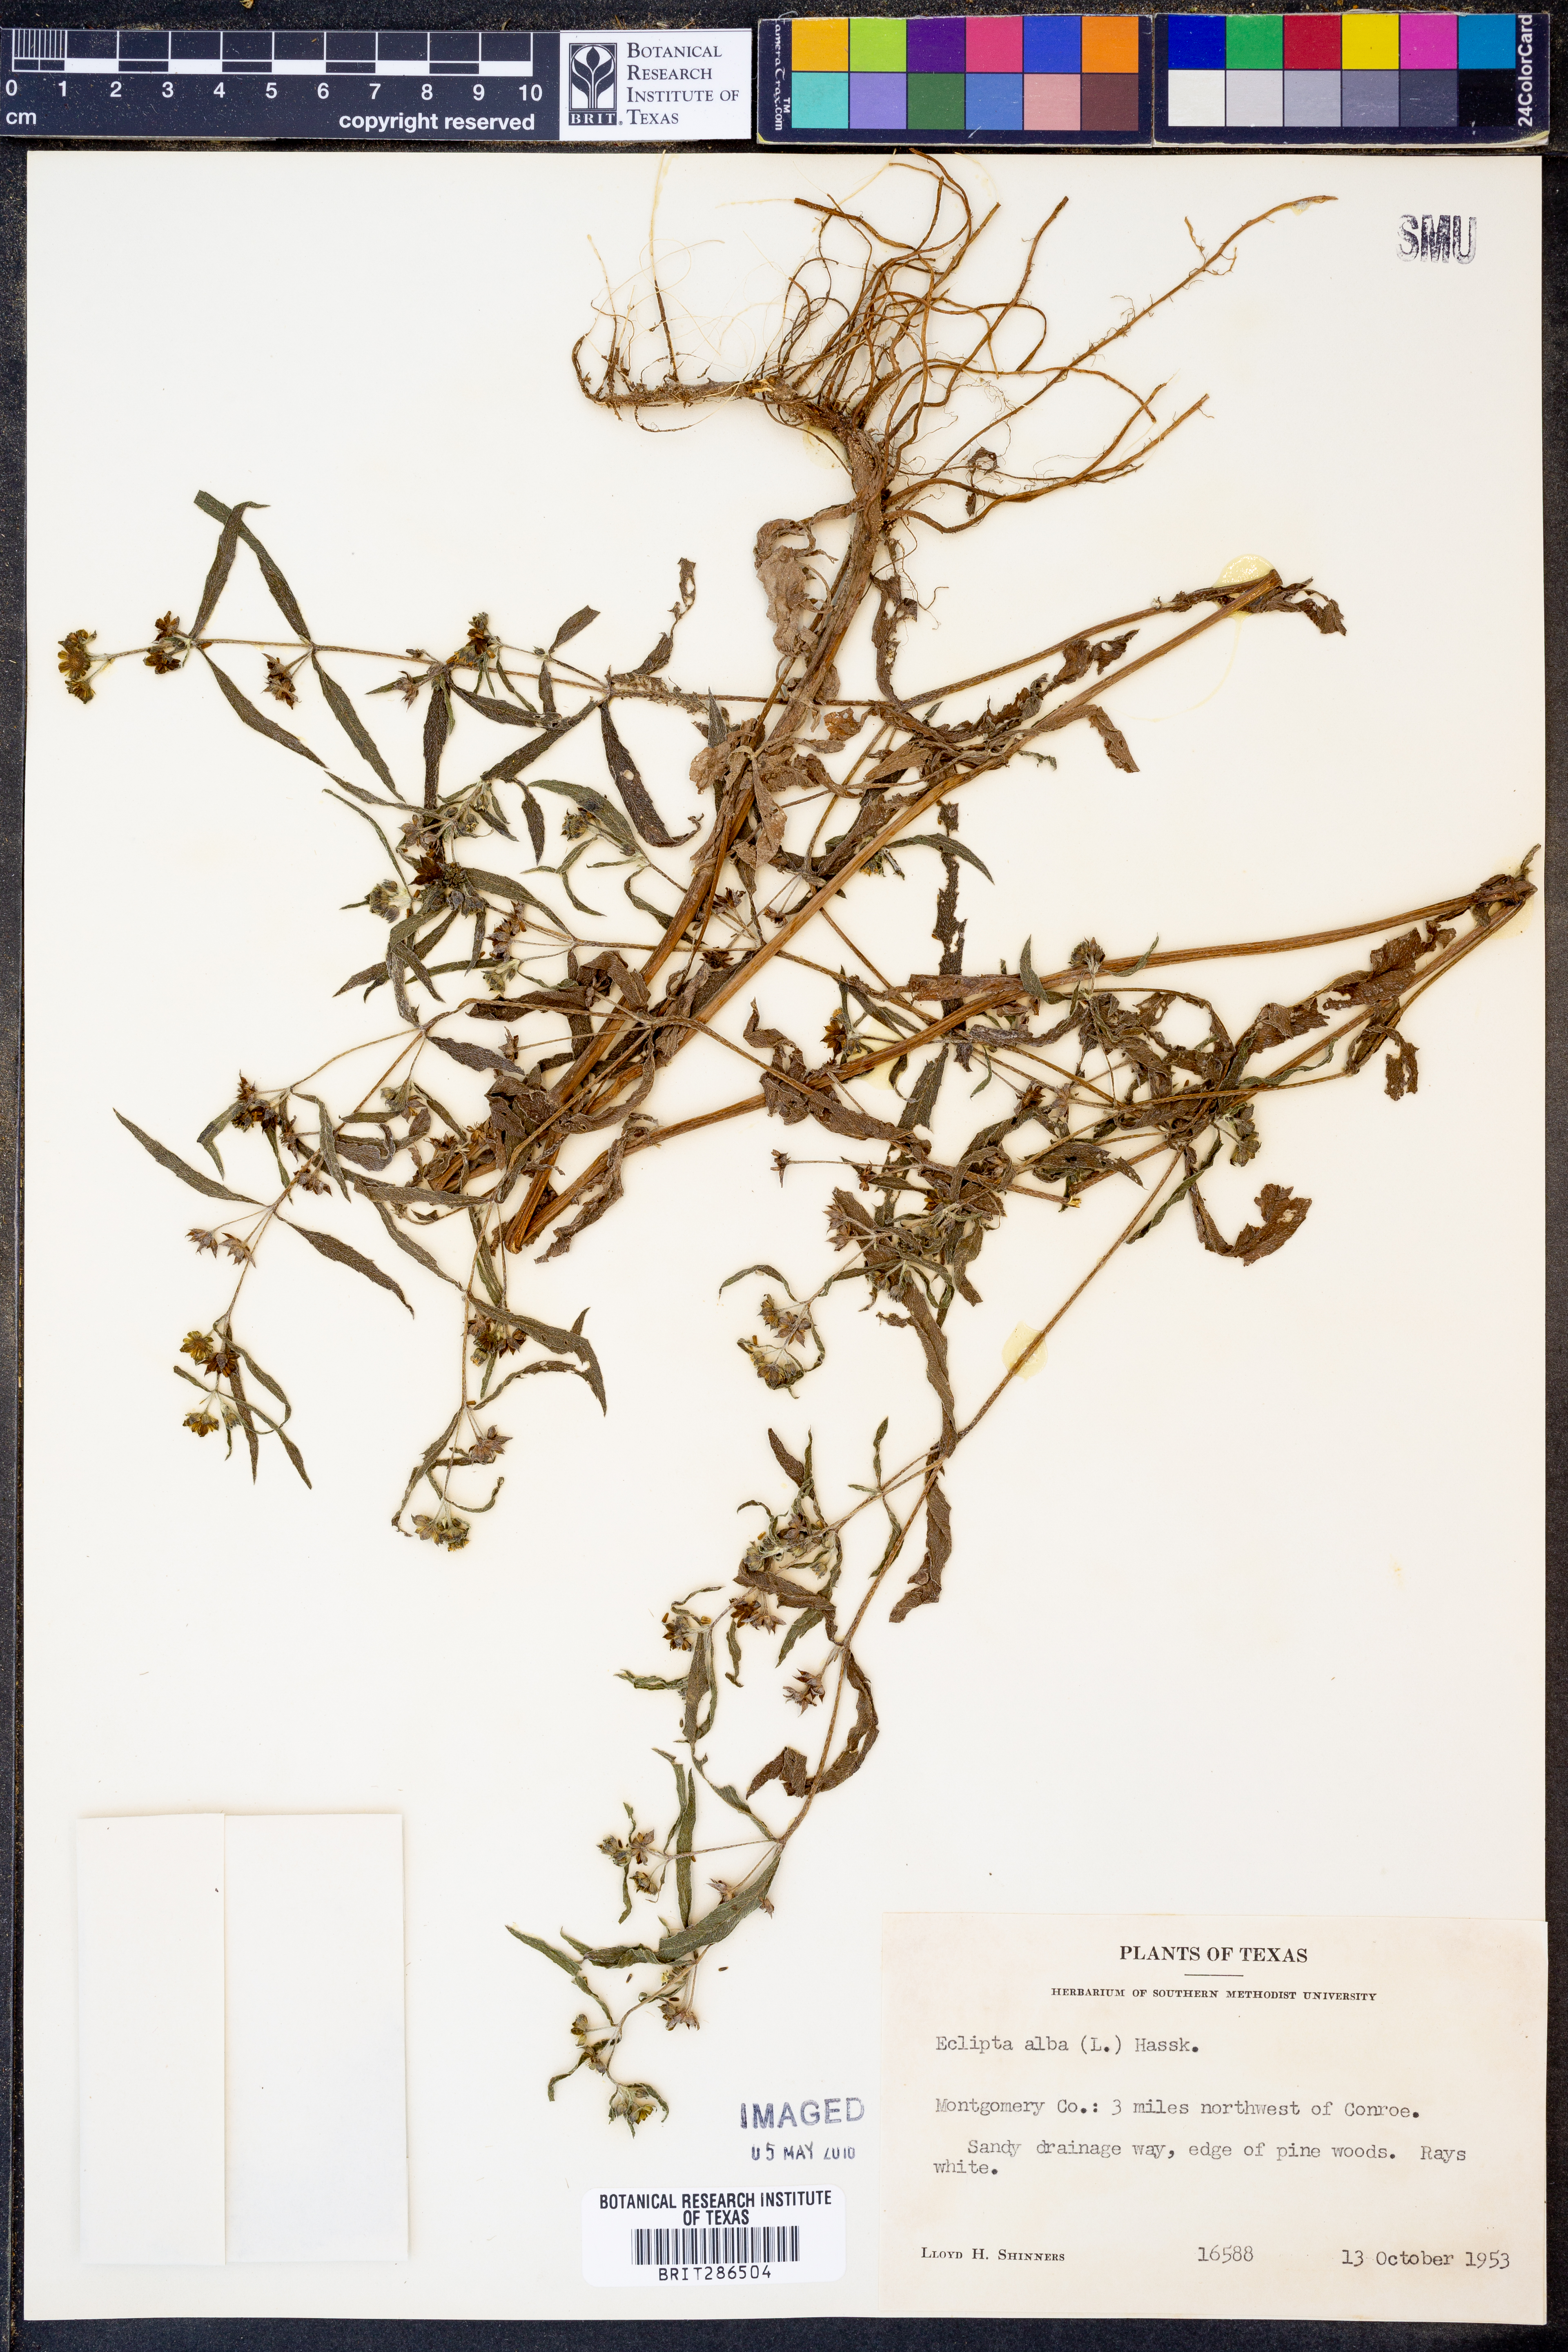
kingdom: Plantae
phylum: Tracheophyta
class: Magnoliopsida
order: Asterales
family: Asteraceae
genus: Eclipta
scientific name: Eclipta alba
